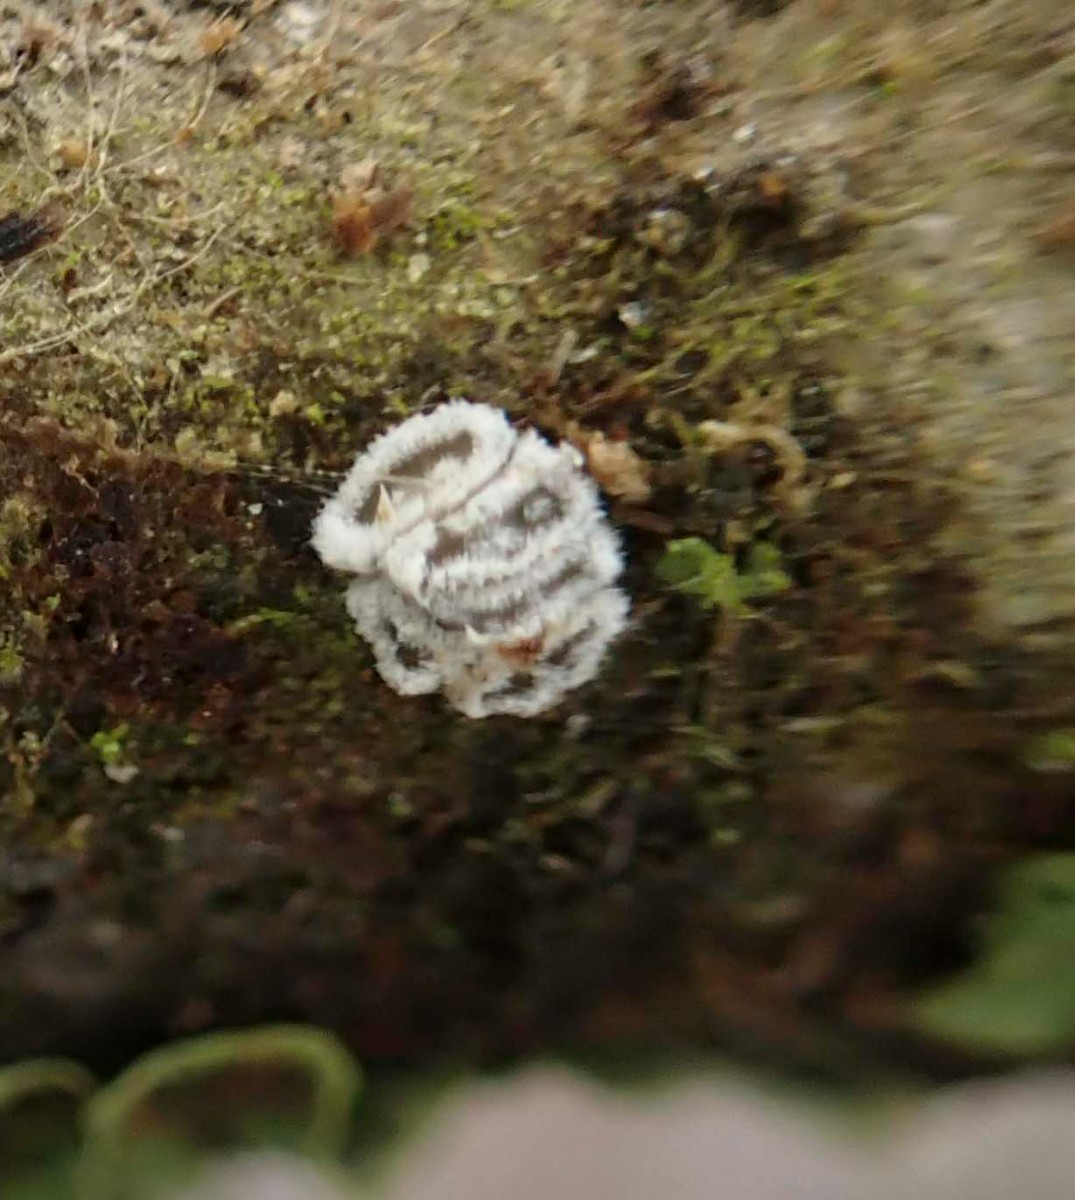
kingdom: Fungi
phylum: Basidiomycota
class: Agaricomycetes
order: Agaricales
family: Niaceae
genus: Lachnella
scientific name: Lachnella alboviolascens
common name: grå frynserede
